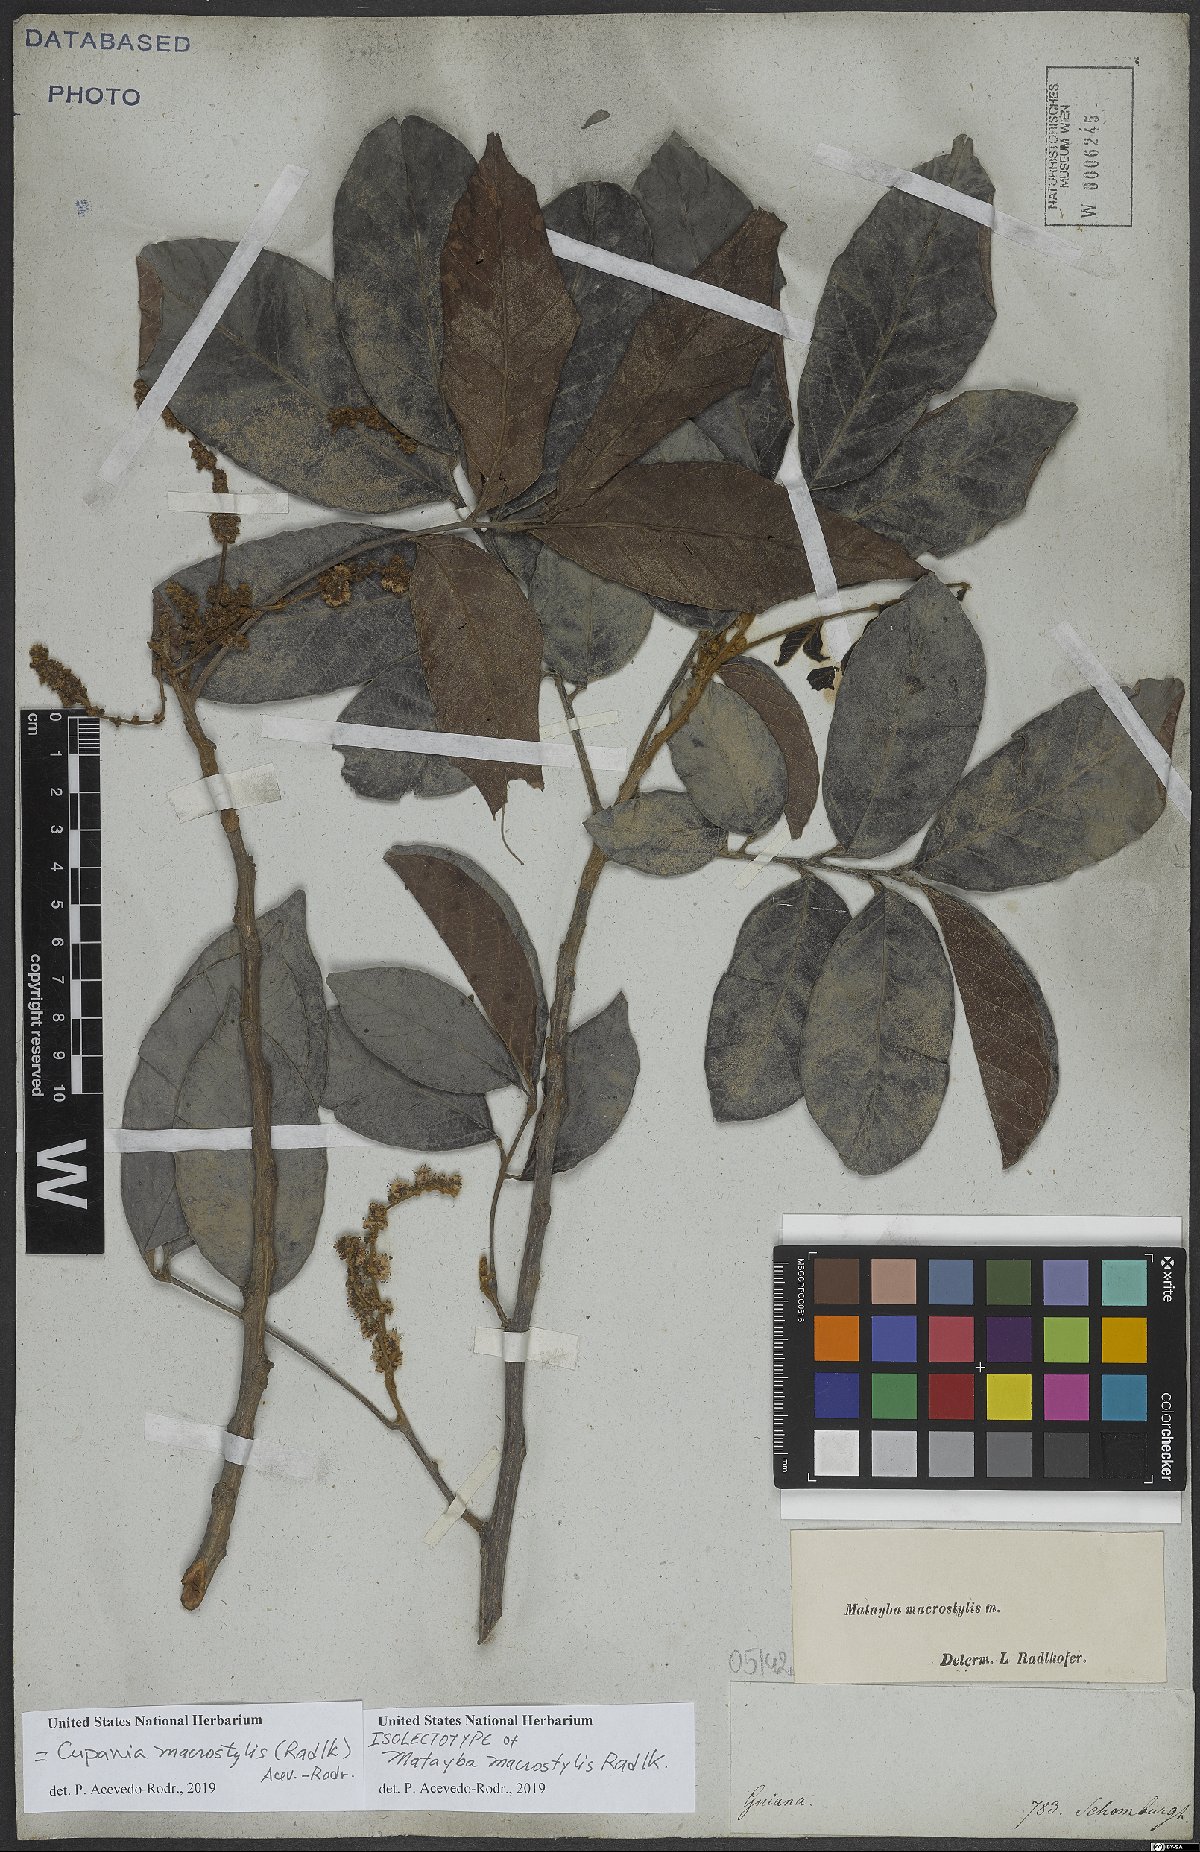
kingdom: Plantae
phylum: Tracheophyta
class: Magnoliopsida
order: Sapindales
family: Sapindaceae
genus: Cupania
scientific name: Cupania macrostylis
